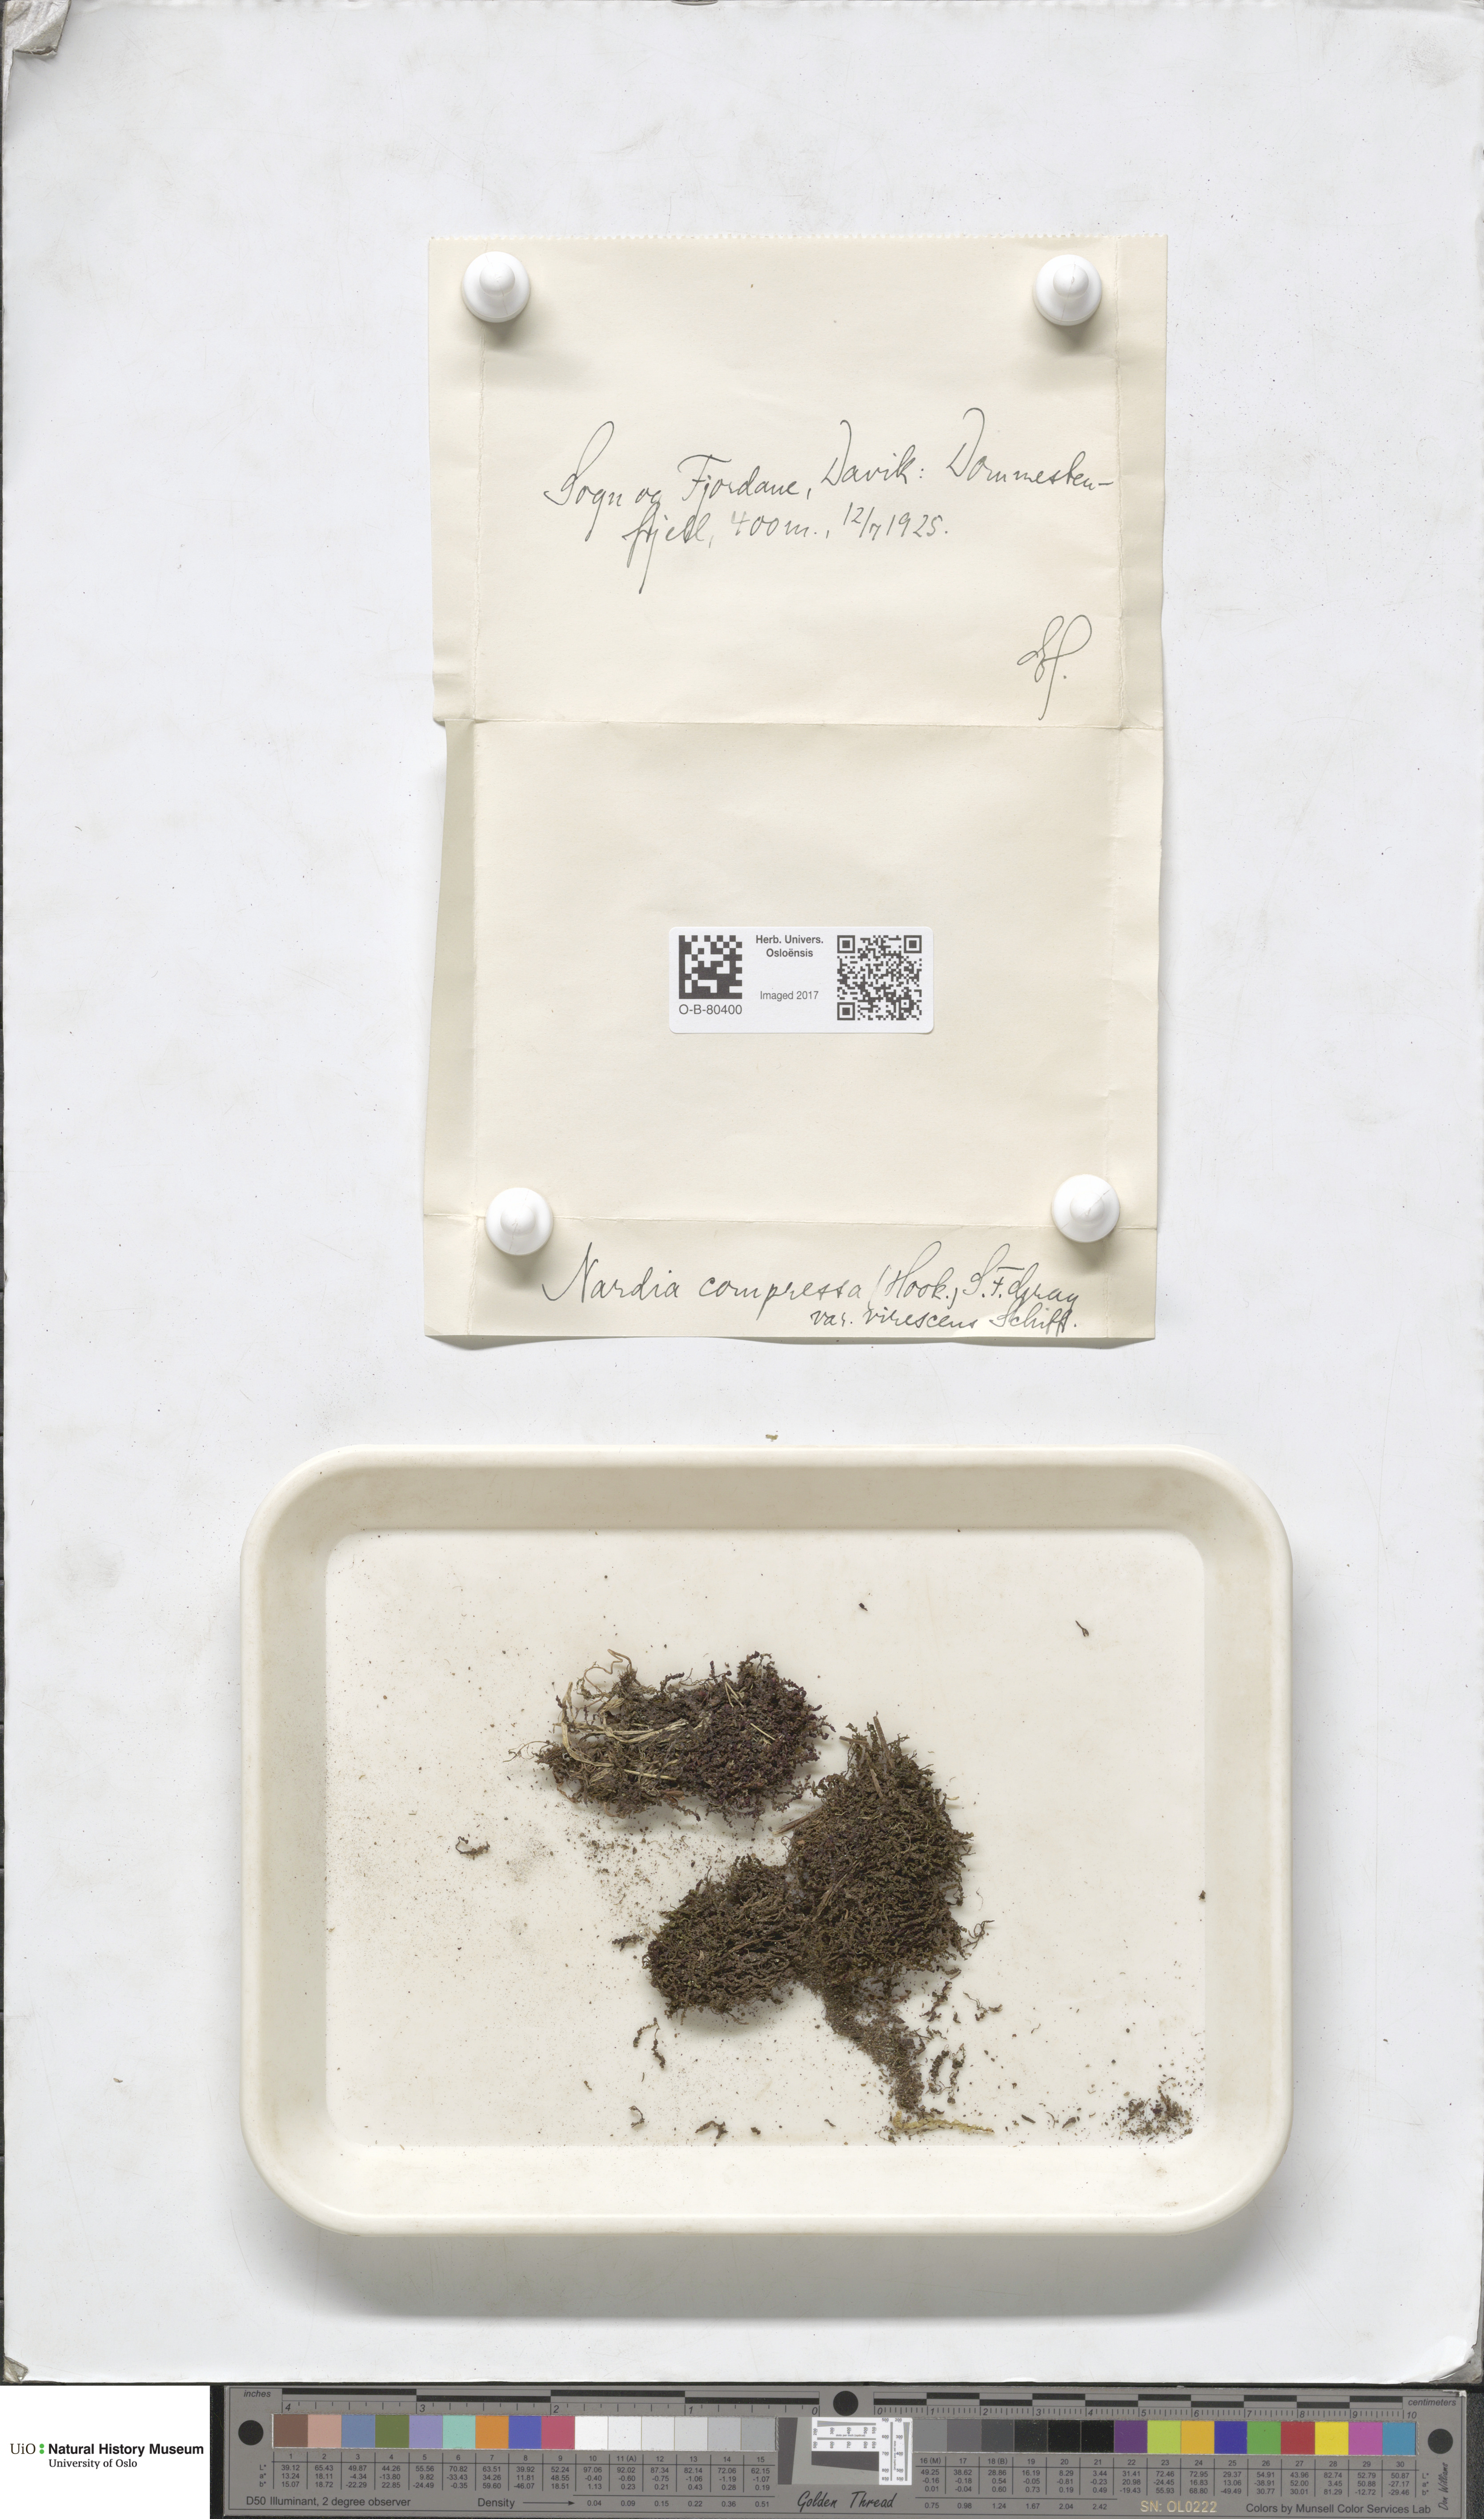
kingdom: Plantae
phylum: Marchantiophyta
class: Jungermanniopsida
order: Jungermanniales
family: Gymnomitriaceae
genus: Nardia
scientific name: Nardia compressa
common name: Compressed flapwort
